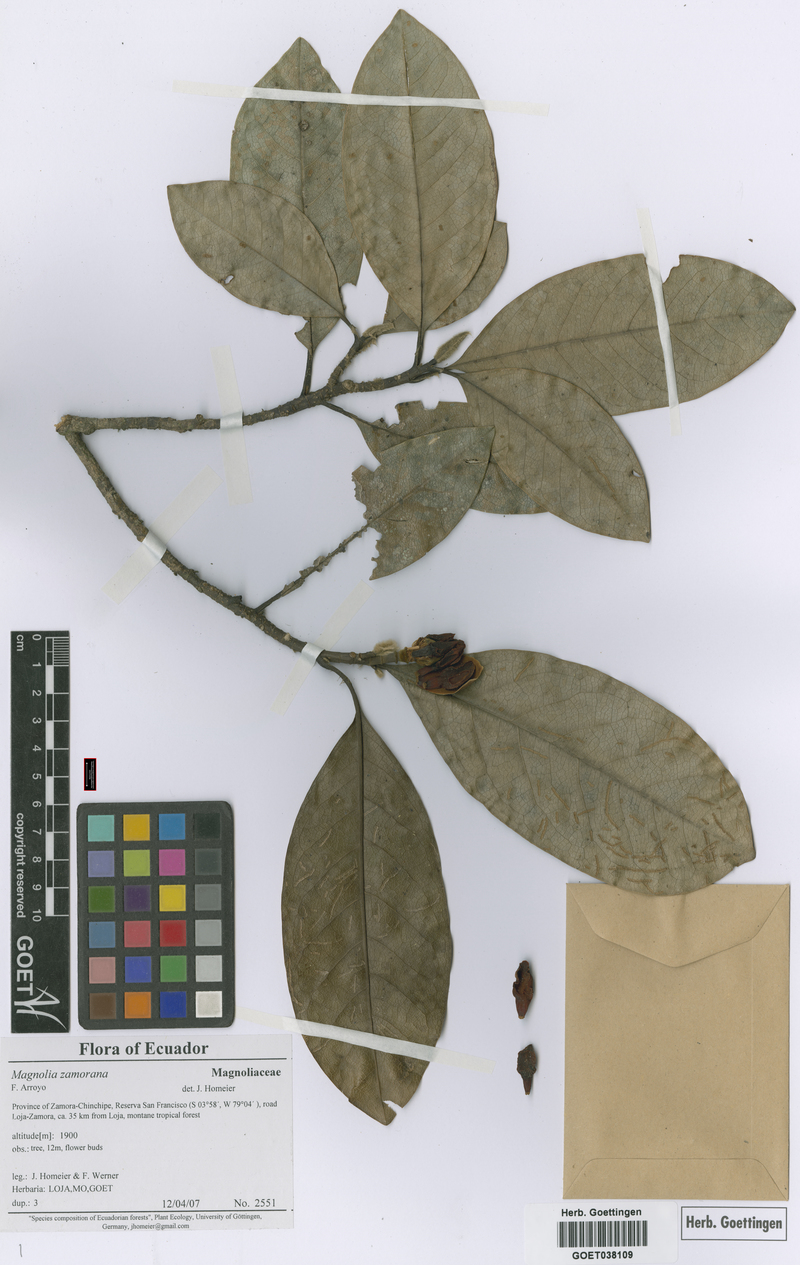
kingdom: Plantae
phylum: Tracheophyta
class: Magnoliopsida
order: Magnoliales
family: Magnoliaceae
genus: Magnolia
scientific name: Magnolia zamorana
